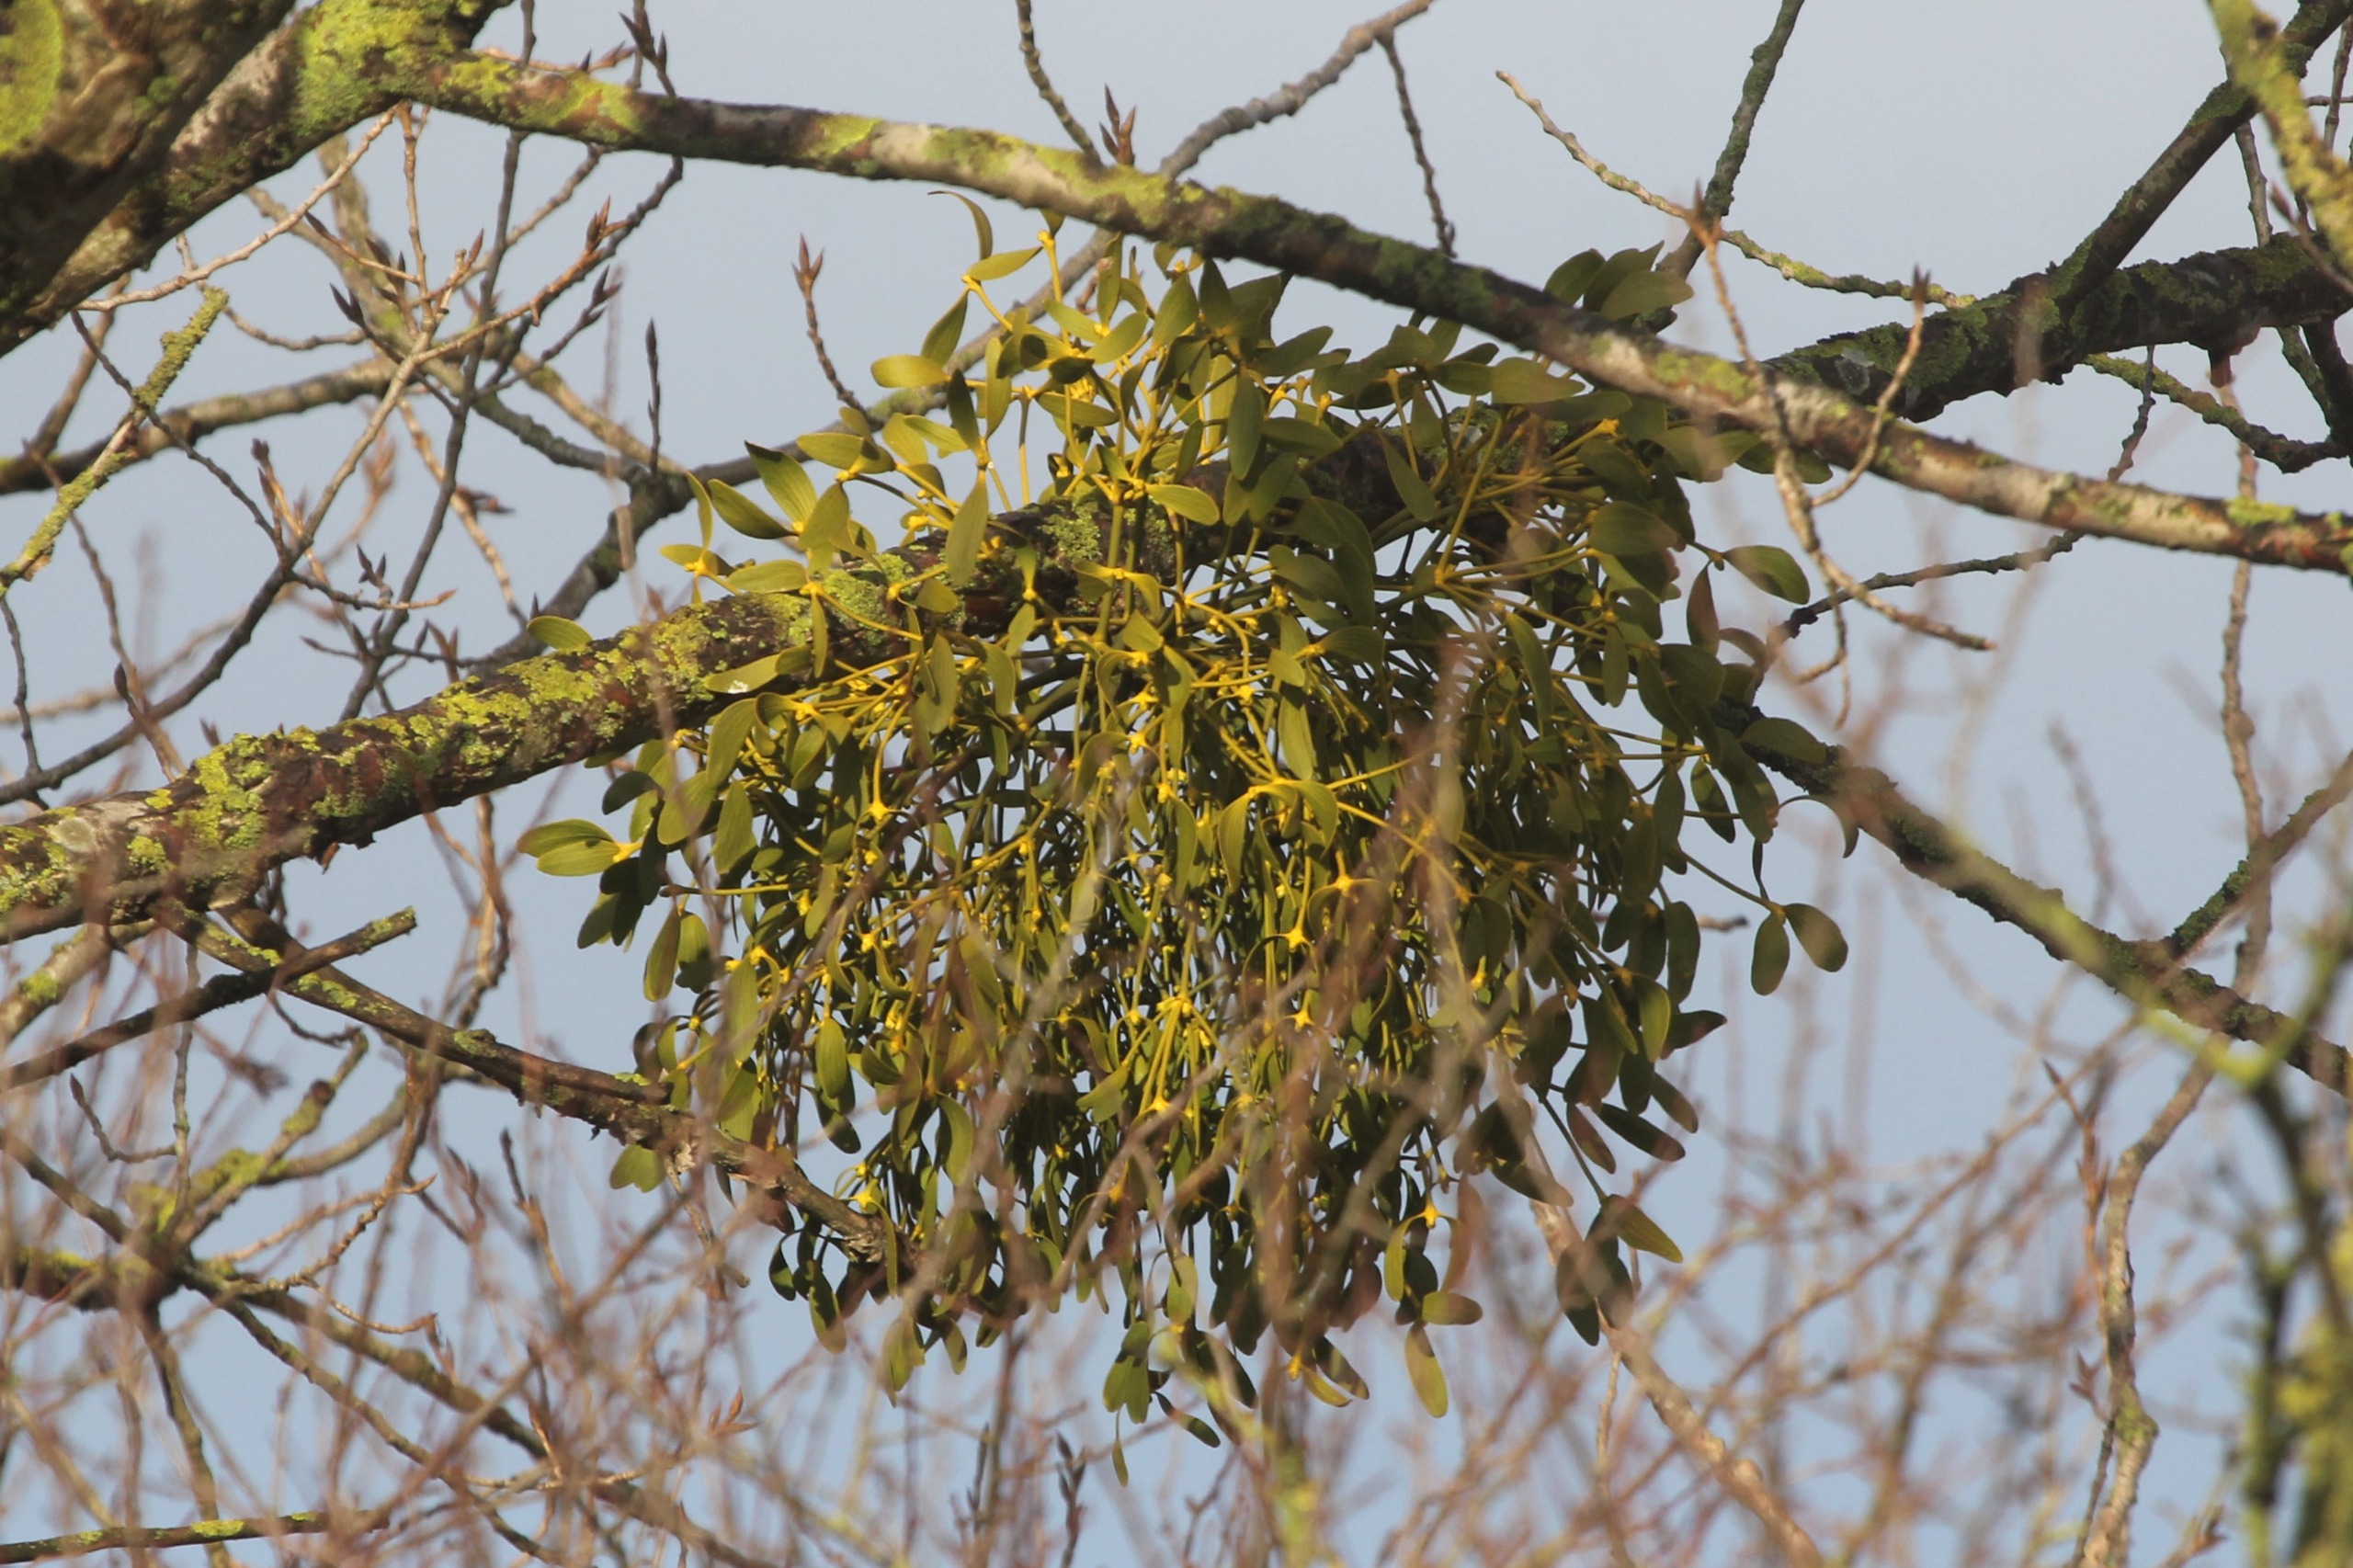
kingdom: Plantae
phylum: Tracheophyta
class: Magnoliopsida
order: Santalales
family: Viscaceae
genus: Viscum
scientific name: Viscum album
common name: Mistelten
